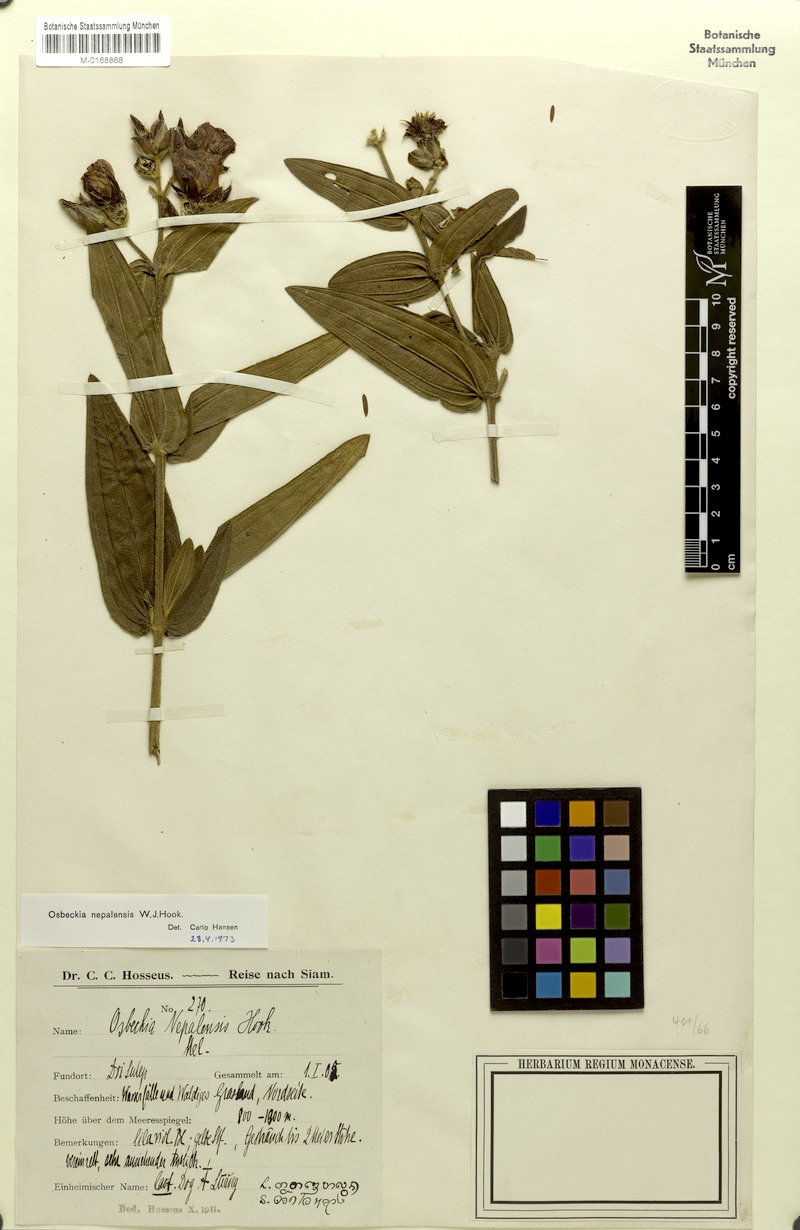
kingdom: Plantae
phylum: Tracheophyta
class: Magnoliopsida
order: Myrtales
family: Melastomataceae
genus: Osbeckia
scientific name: Osbeckia nepalensis
